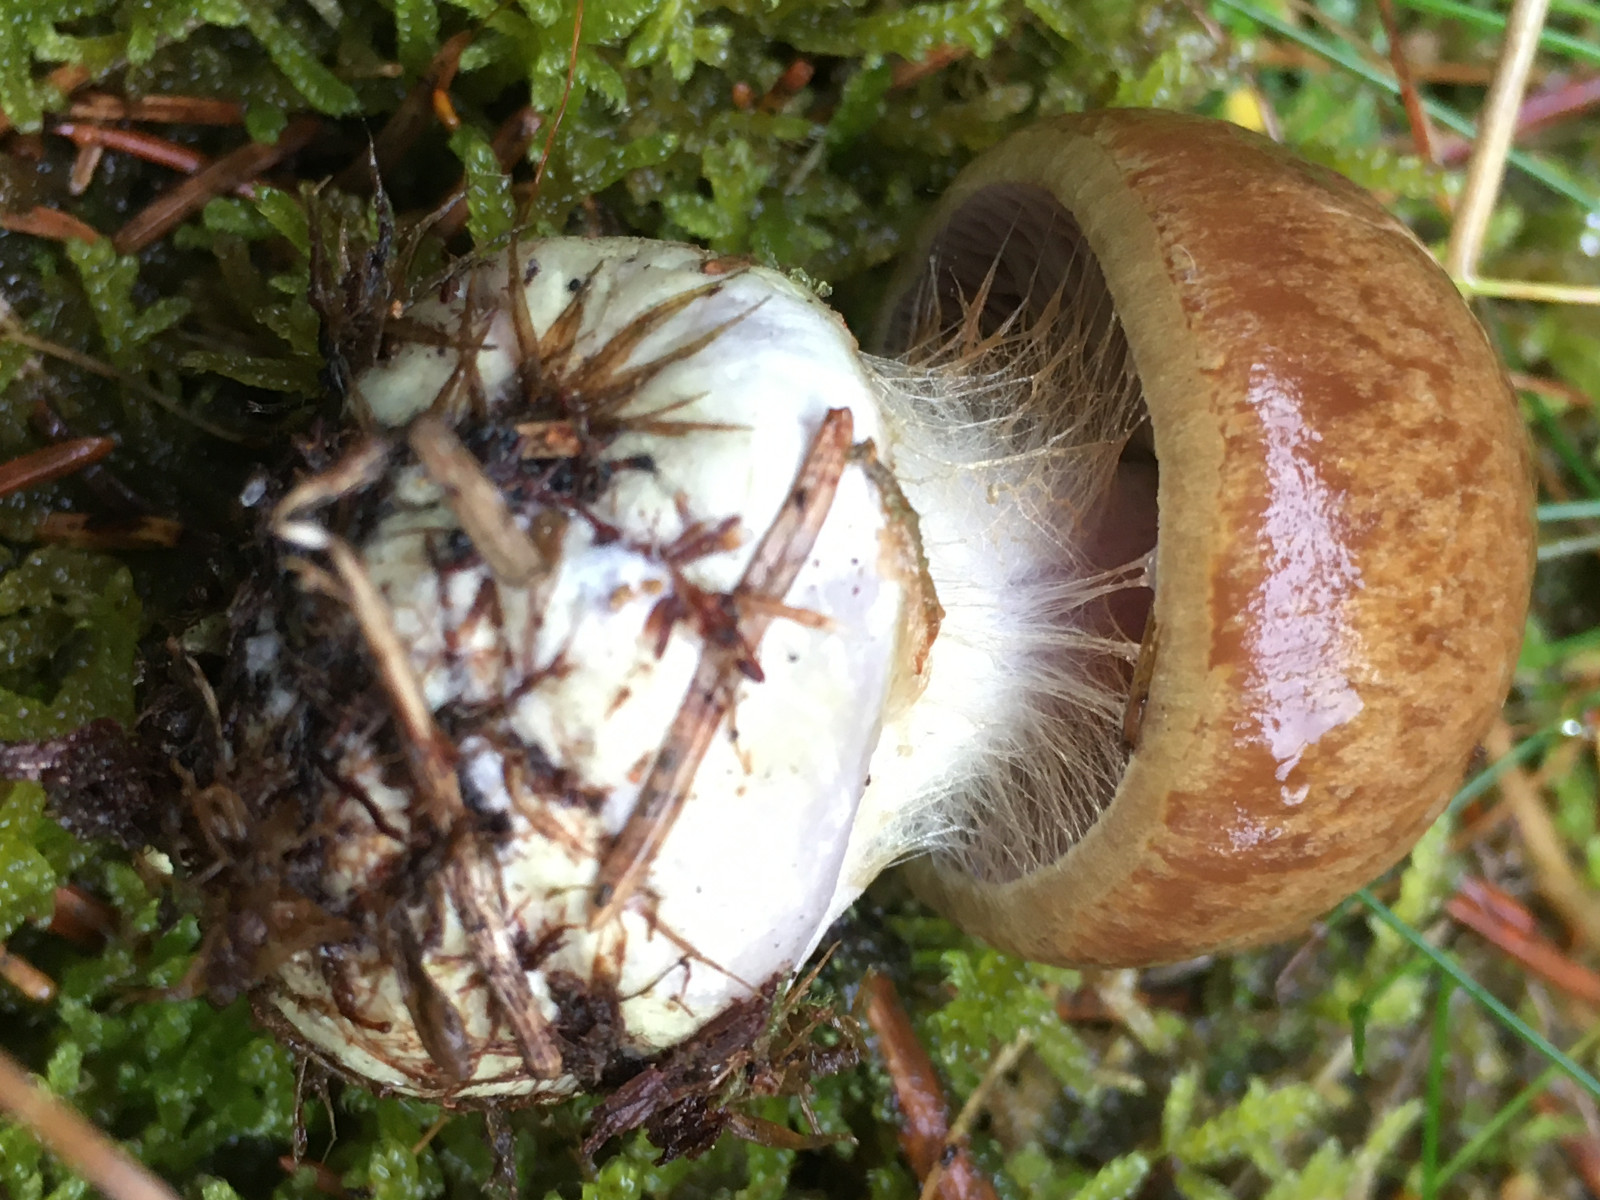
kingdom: Fungi
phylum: Basidiomycota
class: Agaricomycetes
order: Agaricales
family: Cortinariaceae
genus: Thaxterogaster
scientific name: Thaxterogaster scaurus
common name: sump-slørhat
